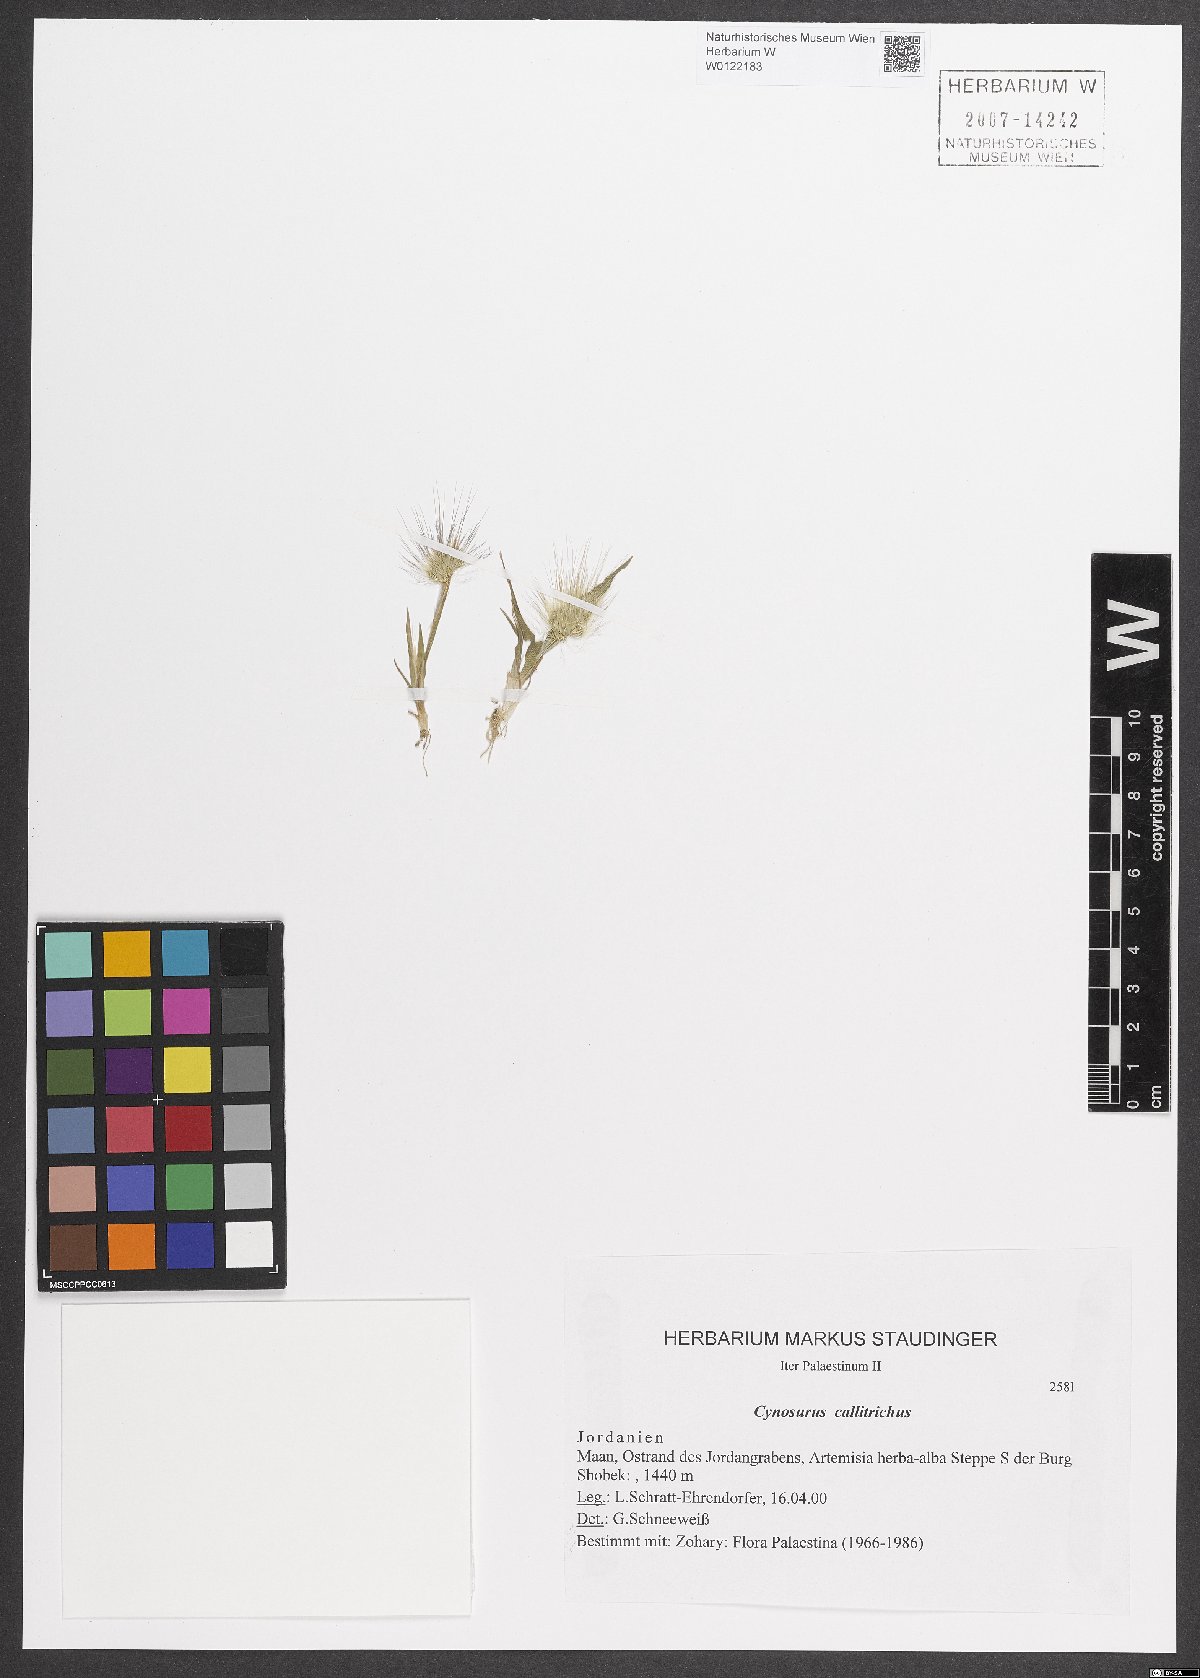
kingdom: Plantae
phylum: Tracheophyta
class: Liliopsida
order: Poales
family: Poaceae
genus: Cynosurus
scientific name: Cynosurus coloratus
